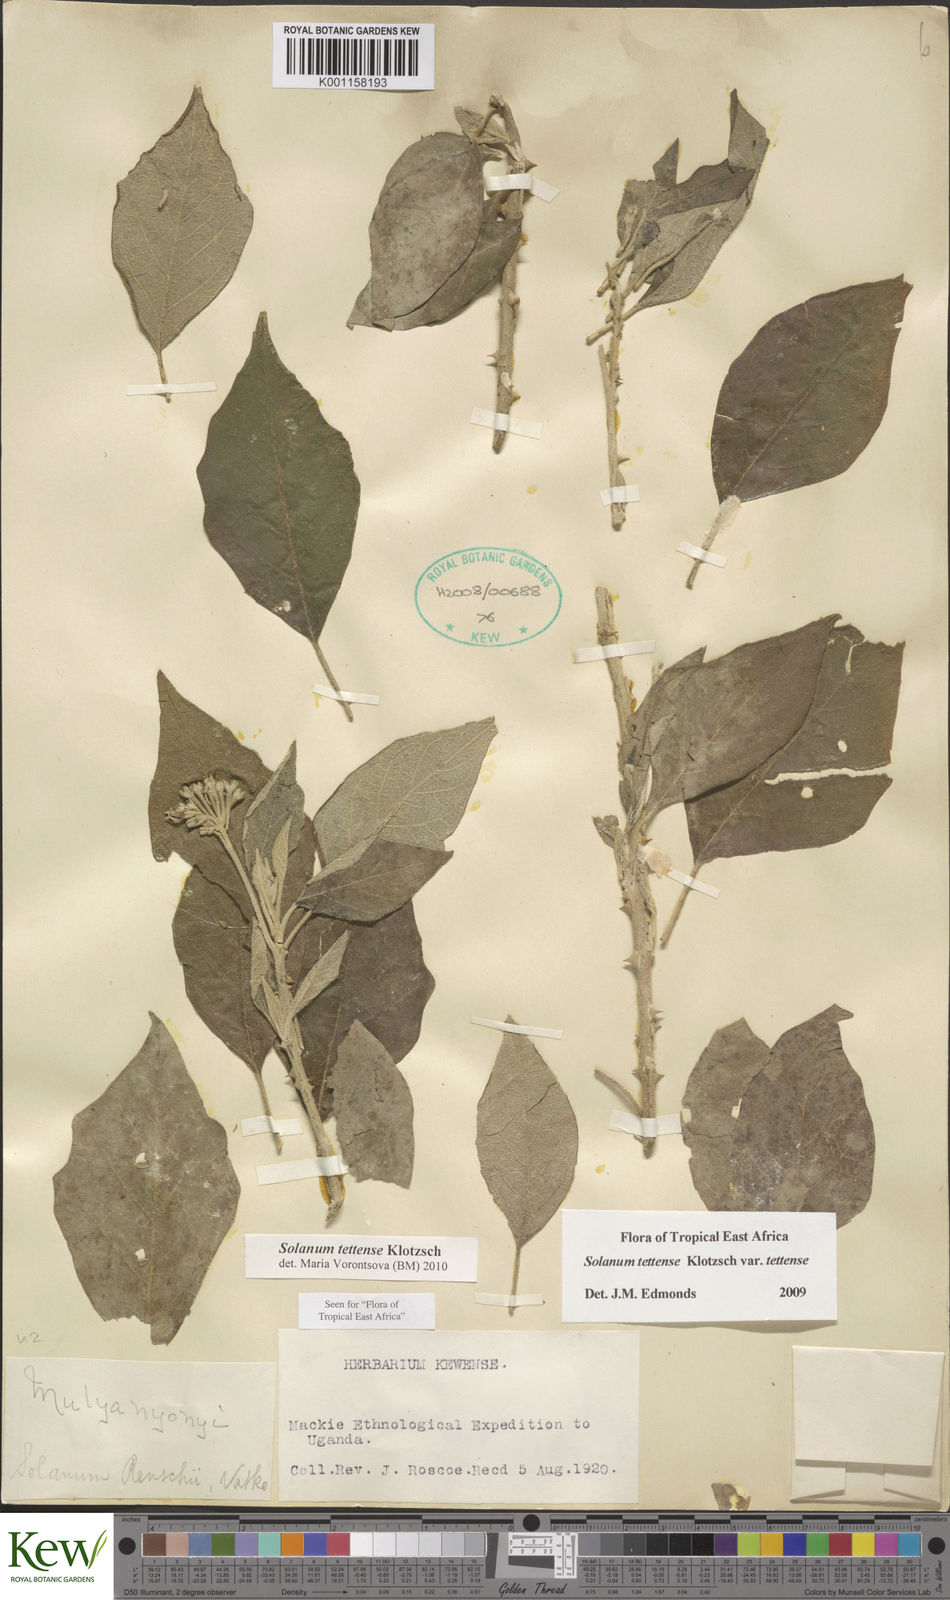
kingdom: Plantae
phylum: Tracheophyta
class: Magnoliopsida
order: Solanales
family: Solanaceae
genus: Solanum
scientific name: Solanum tettense
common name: Mozambique bitter apple
